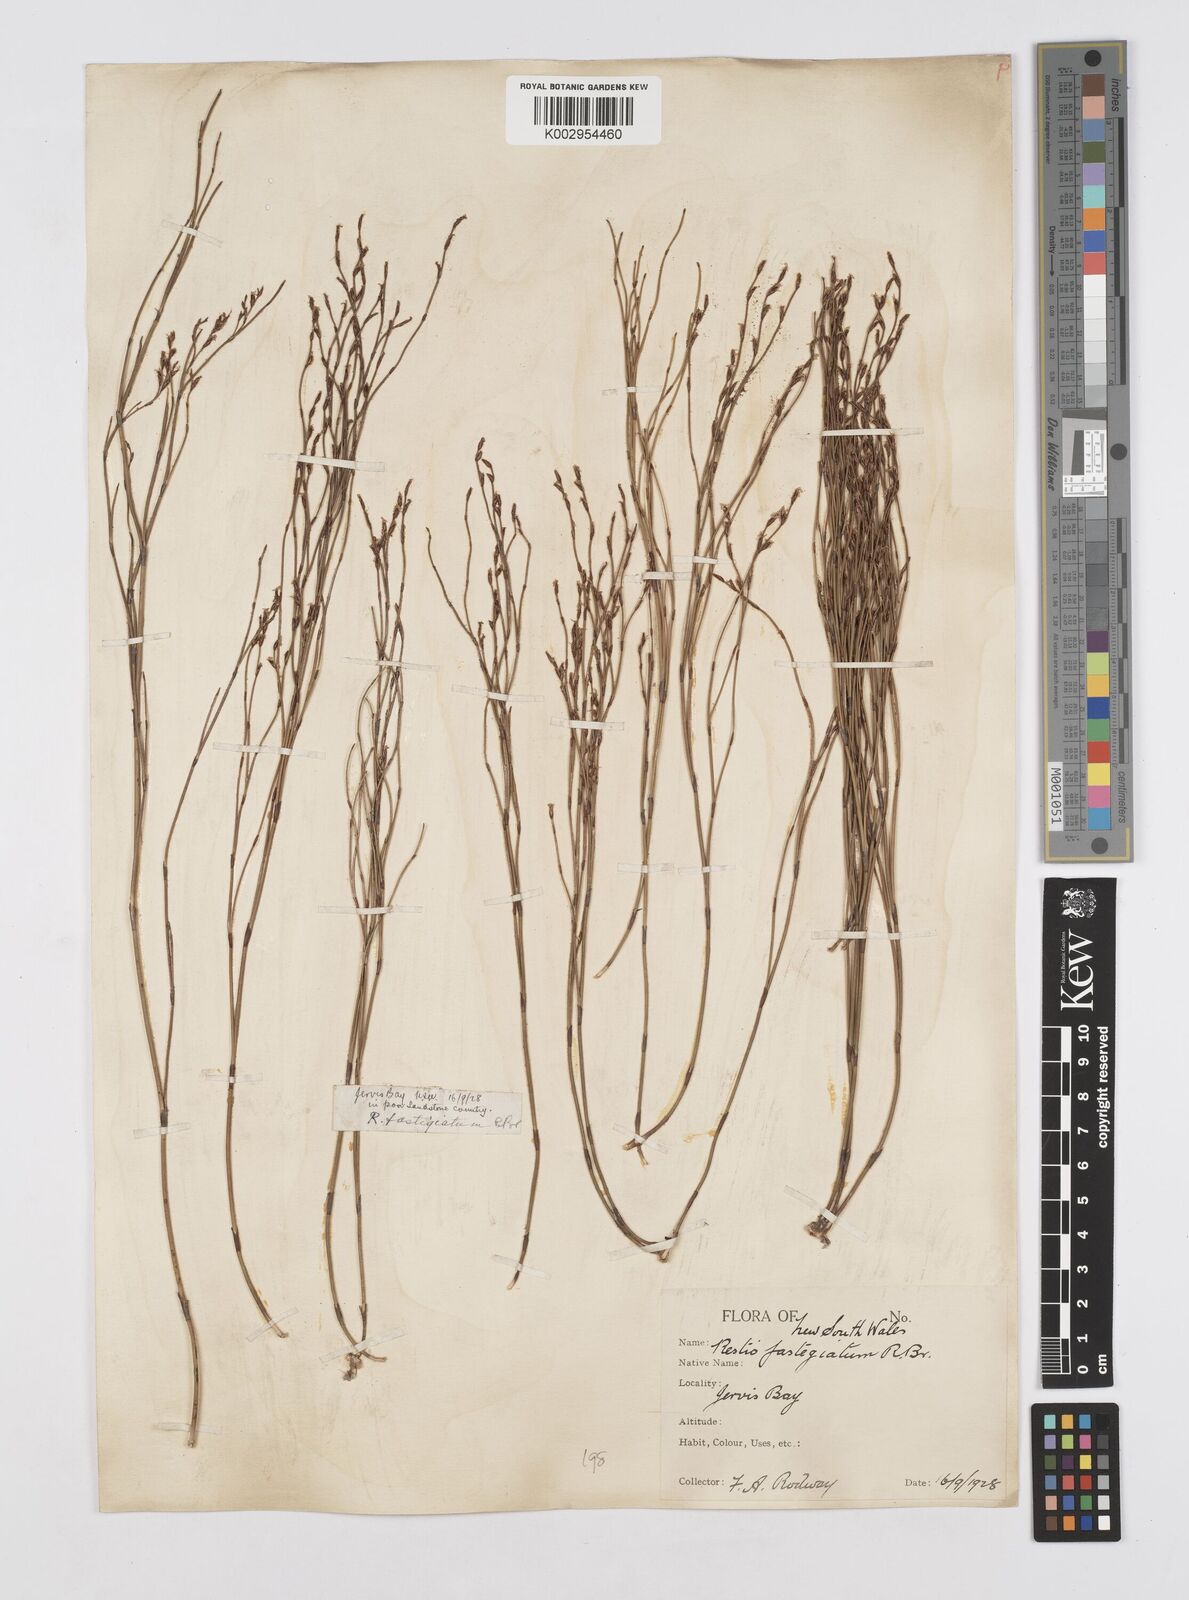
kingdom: Plantae
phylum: Tracheophyta
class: Liliopsida
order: Poales
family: Restionaceae
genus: Chordifex
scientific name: Chordifex fastigiatus
